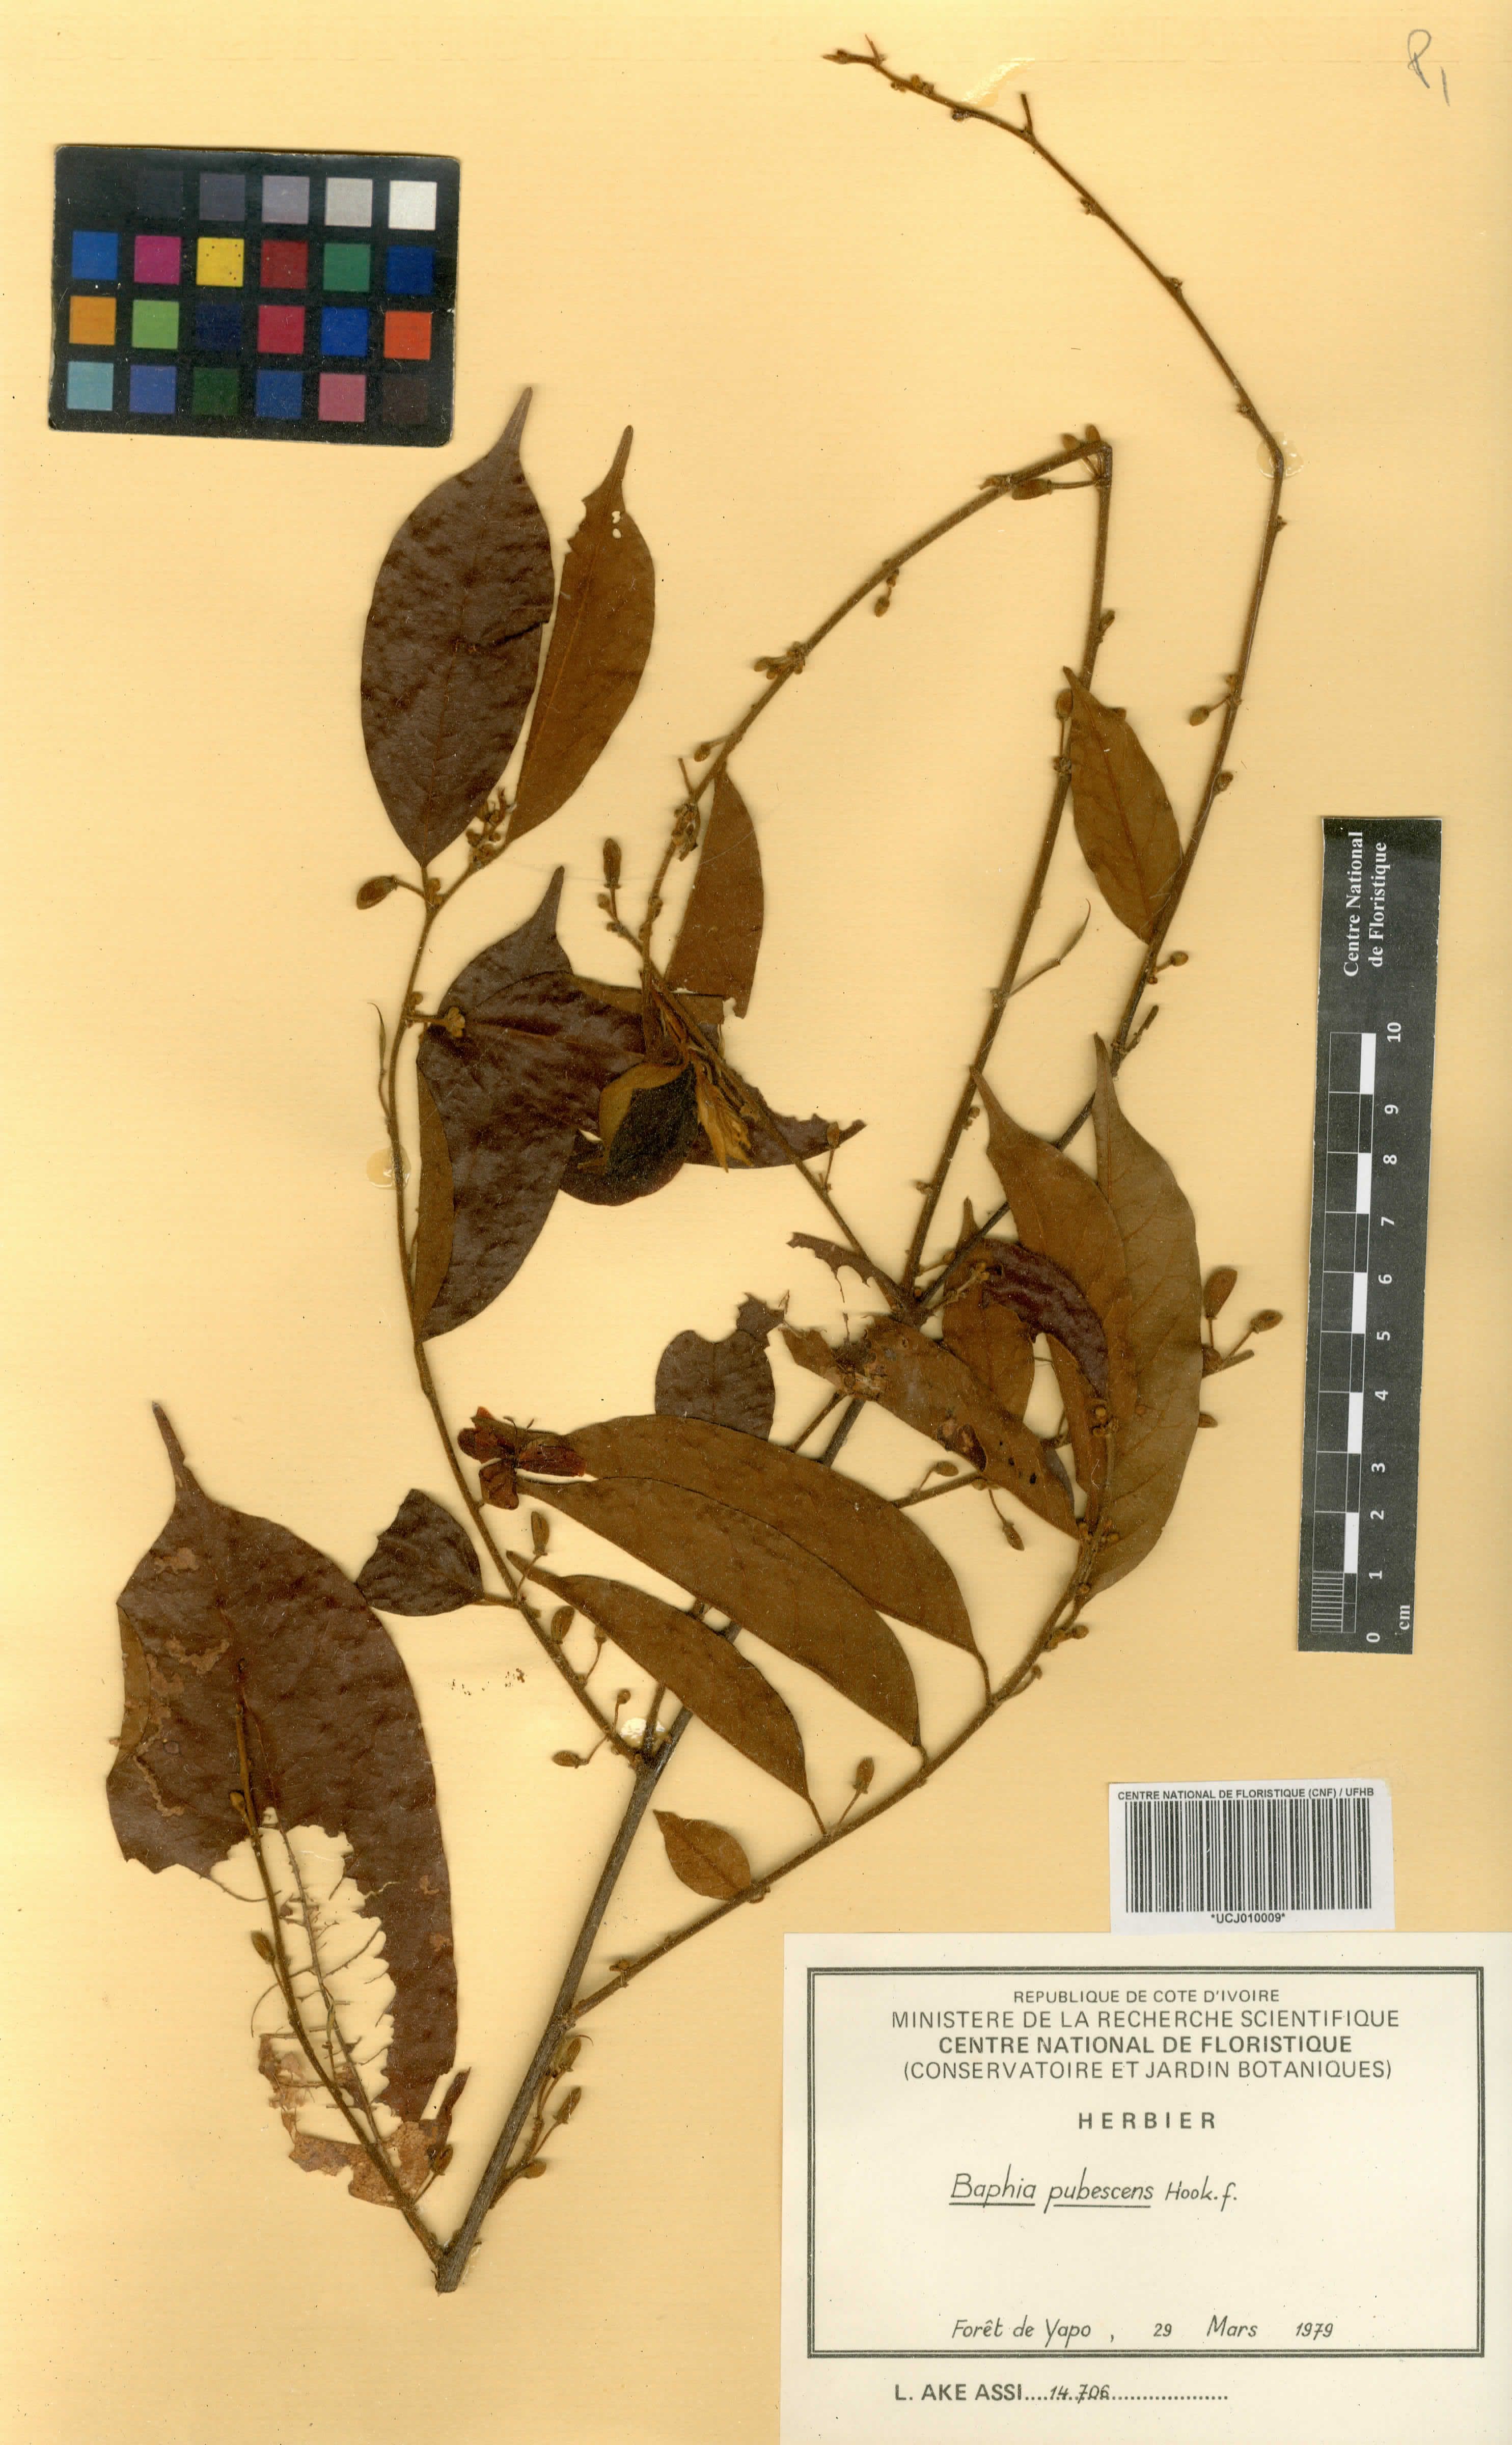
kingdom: Plantae
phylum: Tracheophyta
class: Magnoliopsida
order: Fabales
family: Fabaceae
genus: Baphia
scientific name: Baphia pubescens
